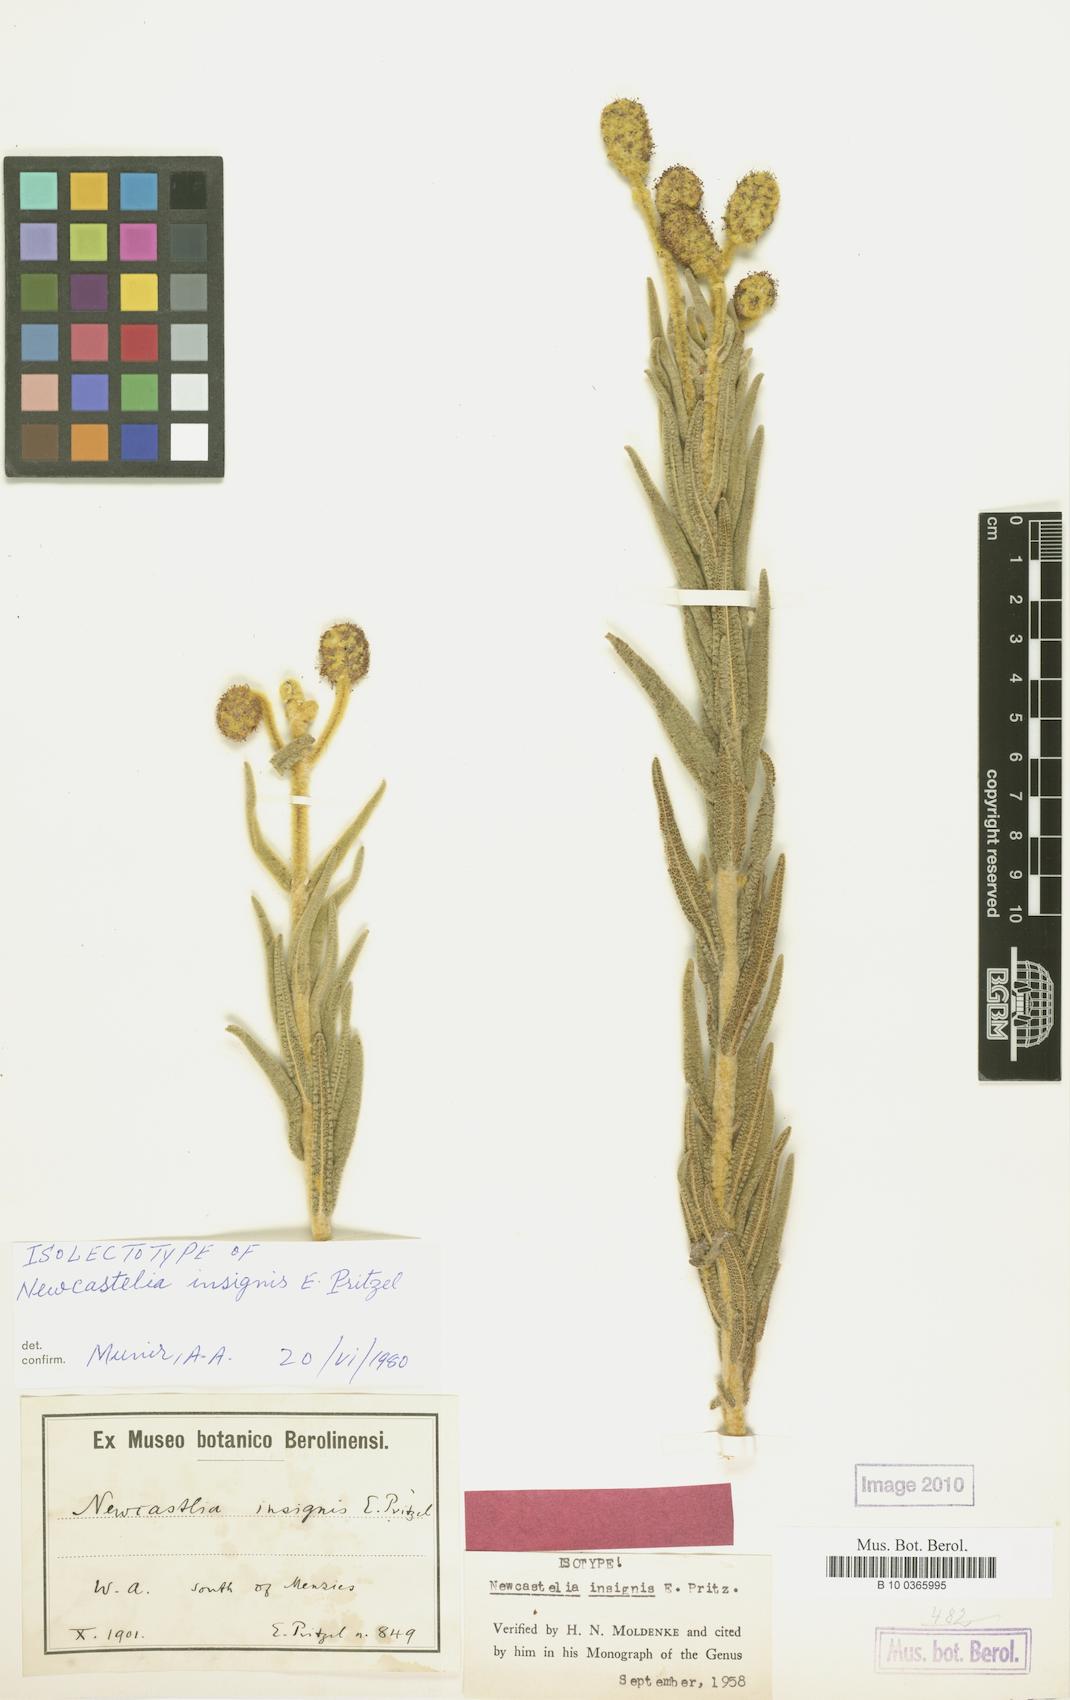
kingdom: Plantae
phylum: Tracheophyta
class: Magnoliopsida
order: Lamiales
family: Lamiaceae
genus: Apatelantha
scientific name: Apatelantha insignis
